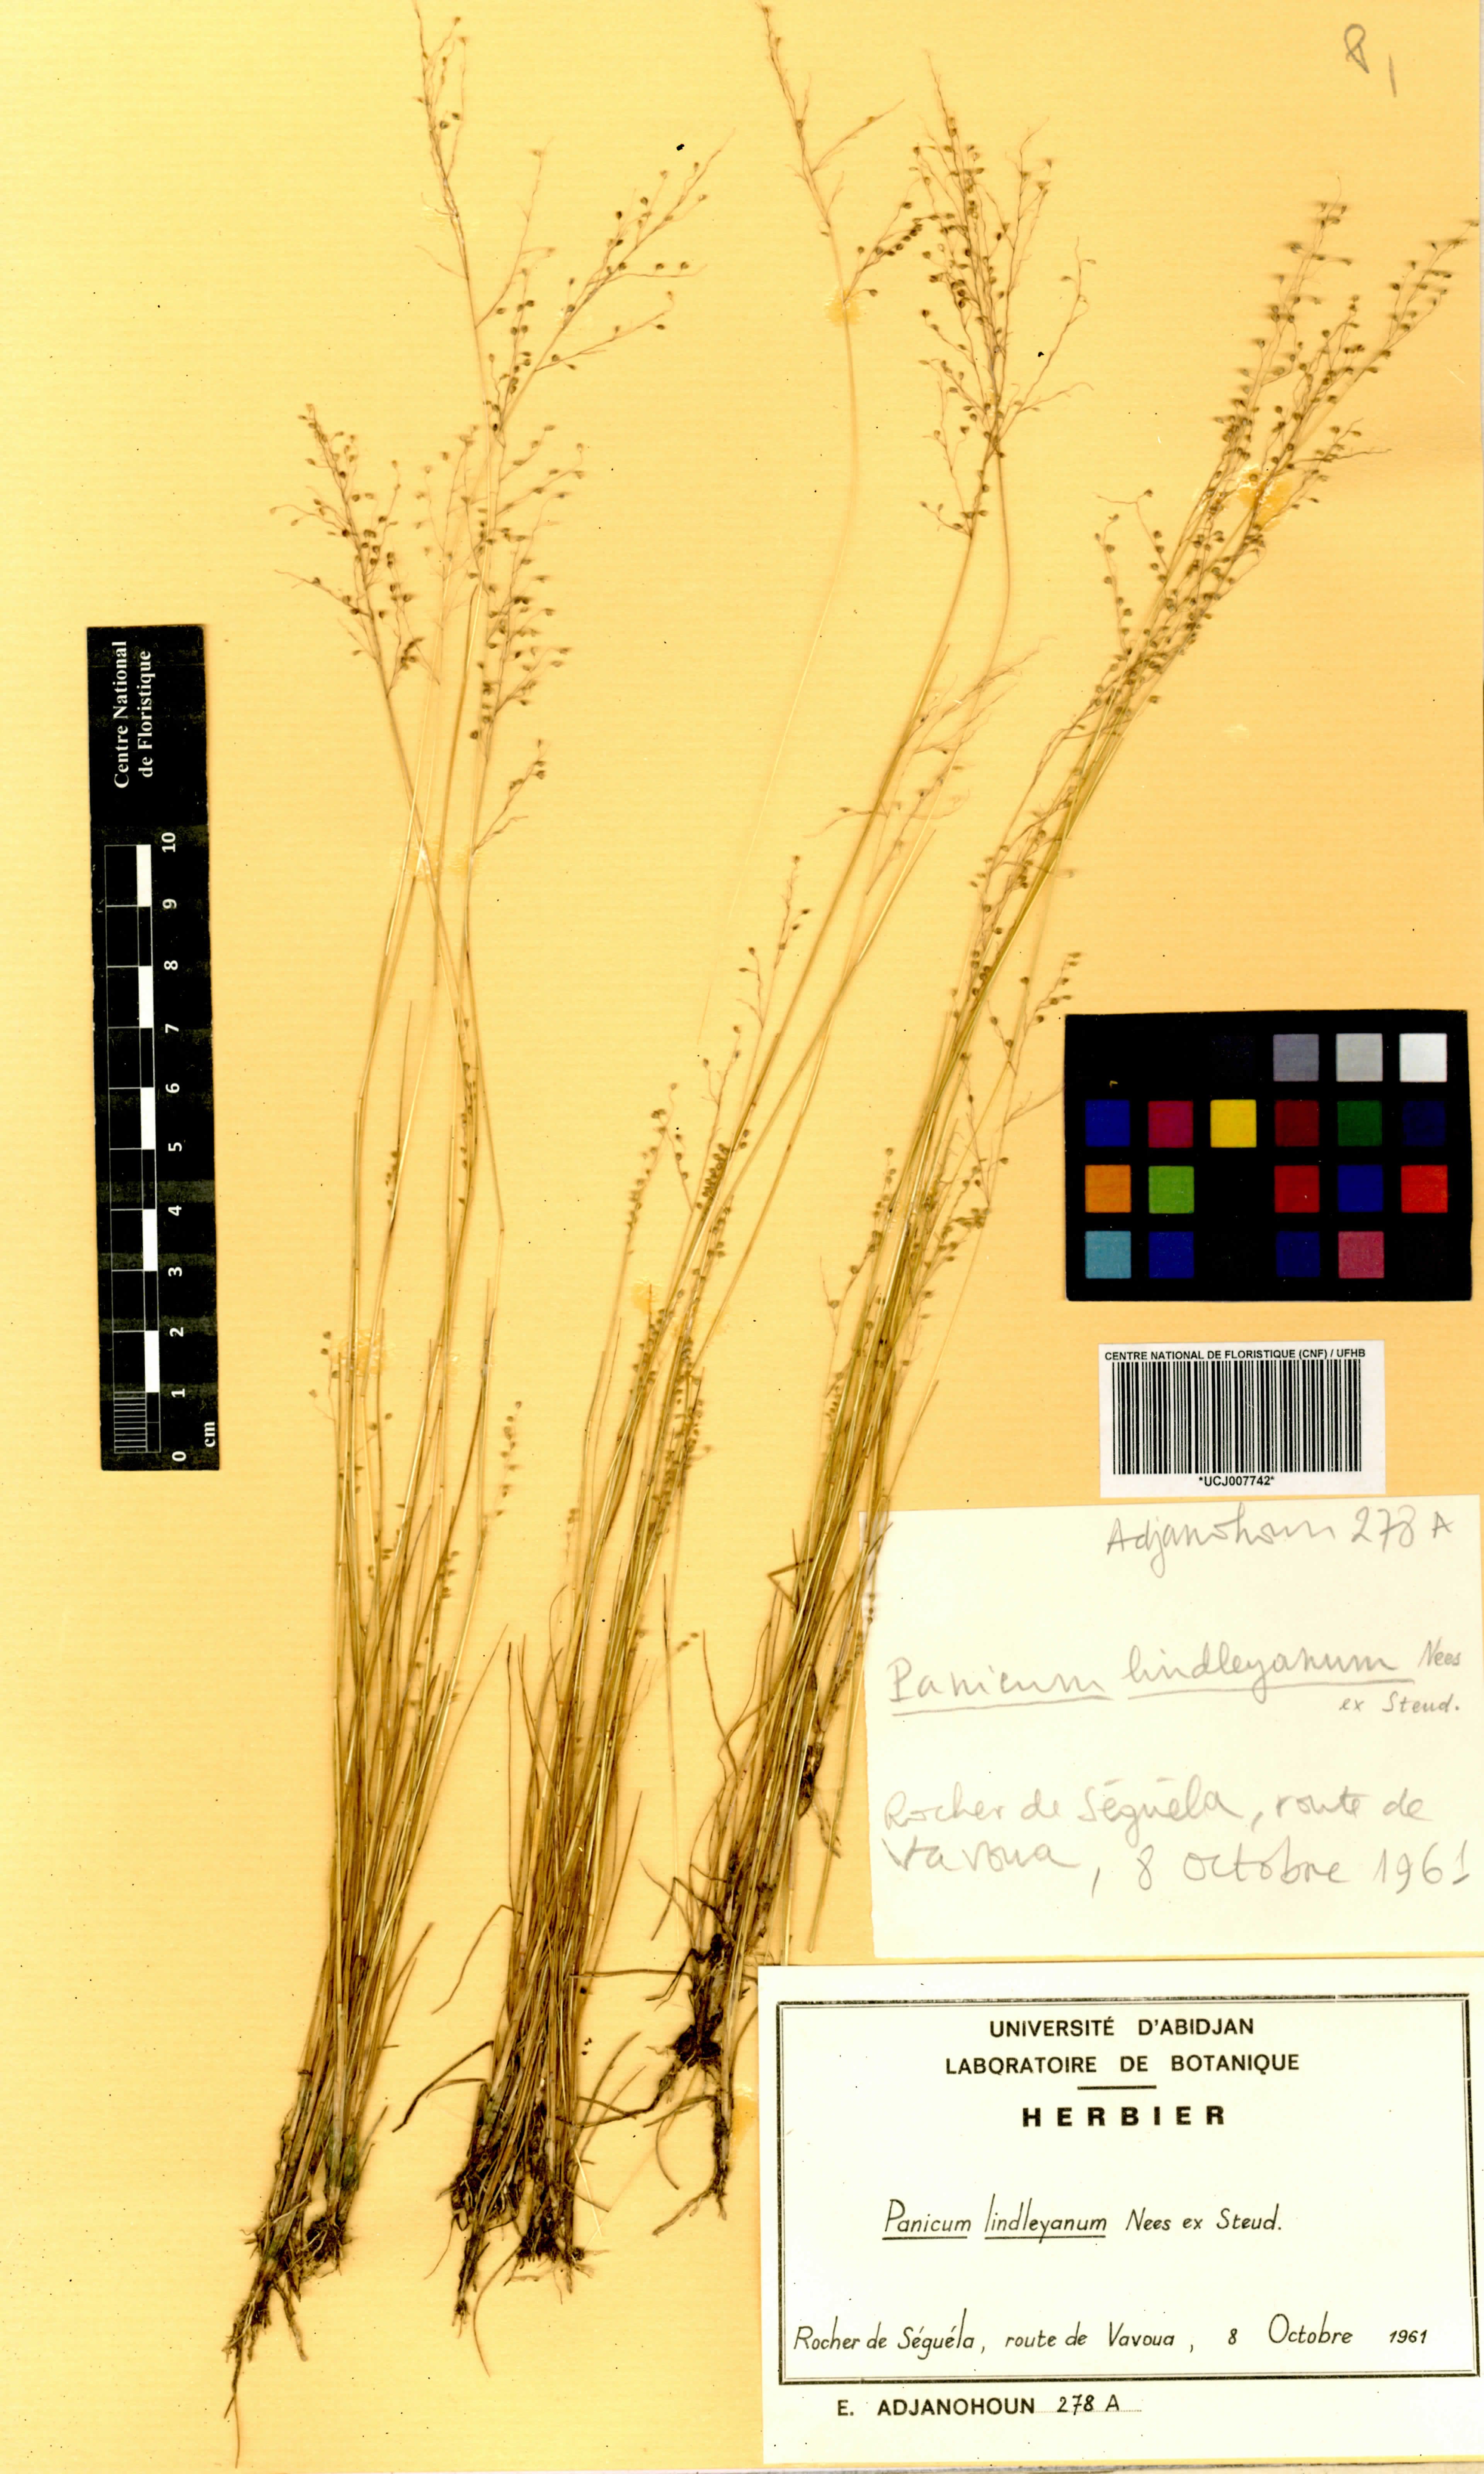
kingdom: Plantae
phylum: Tracheophyta
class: Liliopsida
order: Poales
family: Poaceae
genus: Trichanthecium
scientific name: Trichanthecium tenellum
